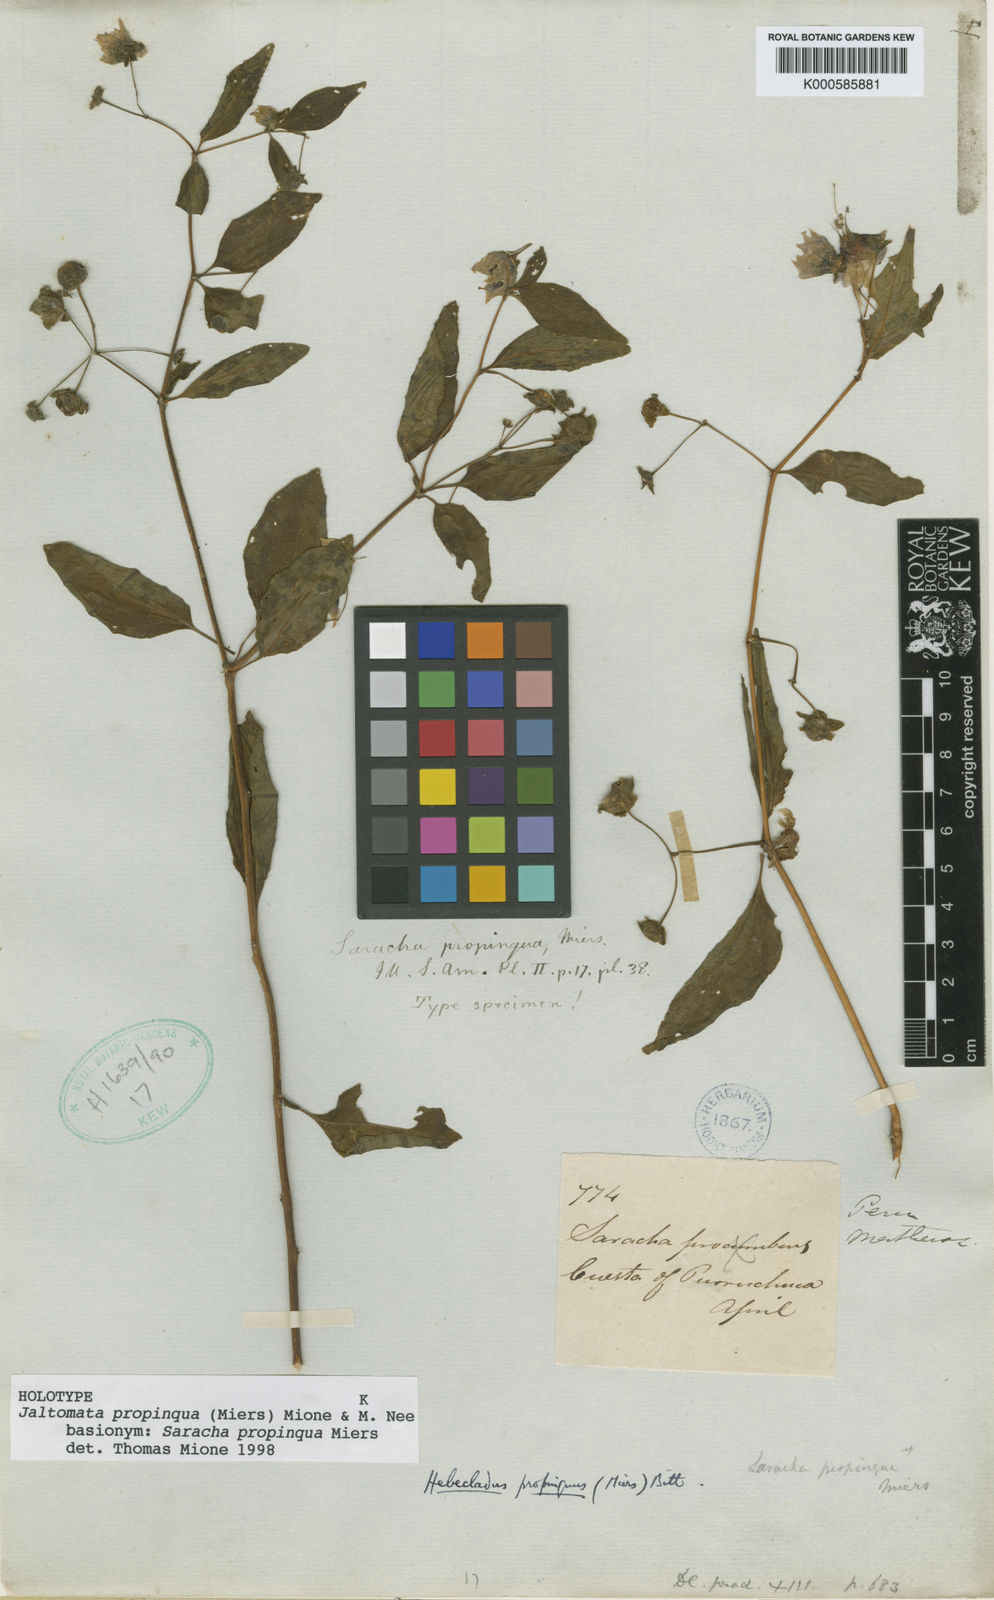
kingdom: Plantae
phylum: Tracheophyta
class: Magnoliopsida
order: Solanales
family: Solanaceae
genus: Jaltomata
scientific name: Jaltomata propinqua
